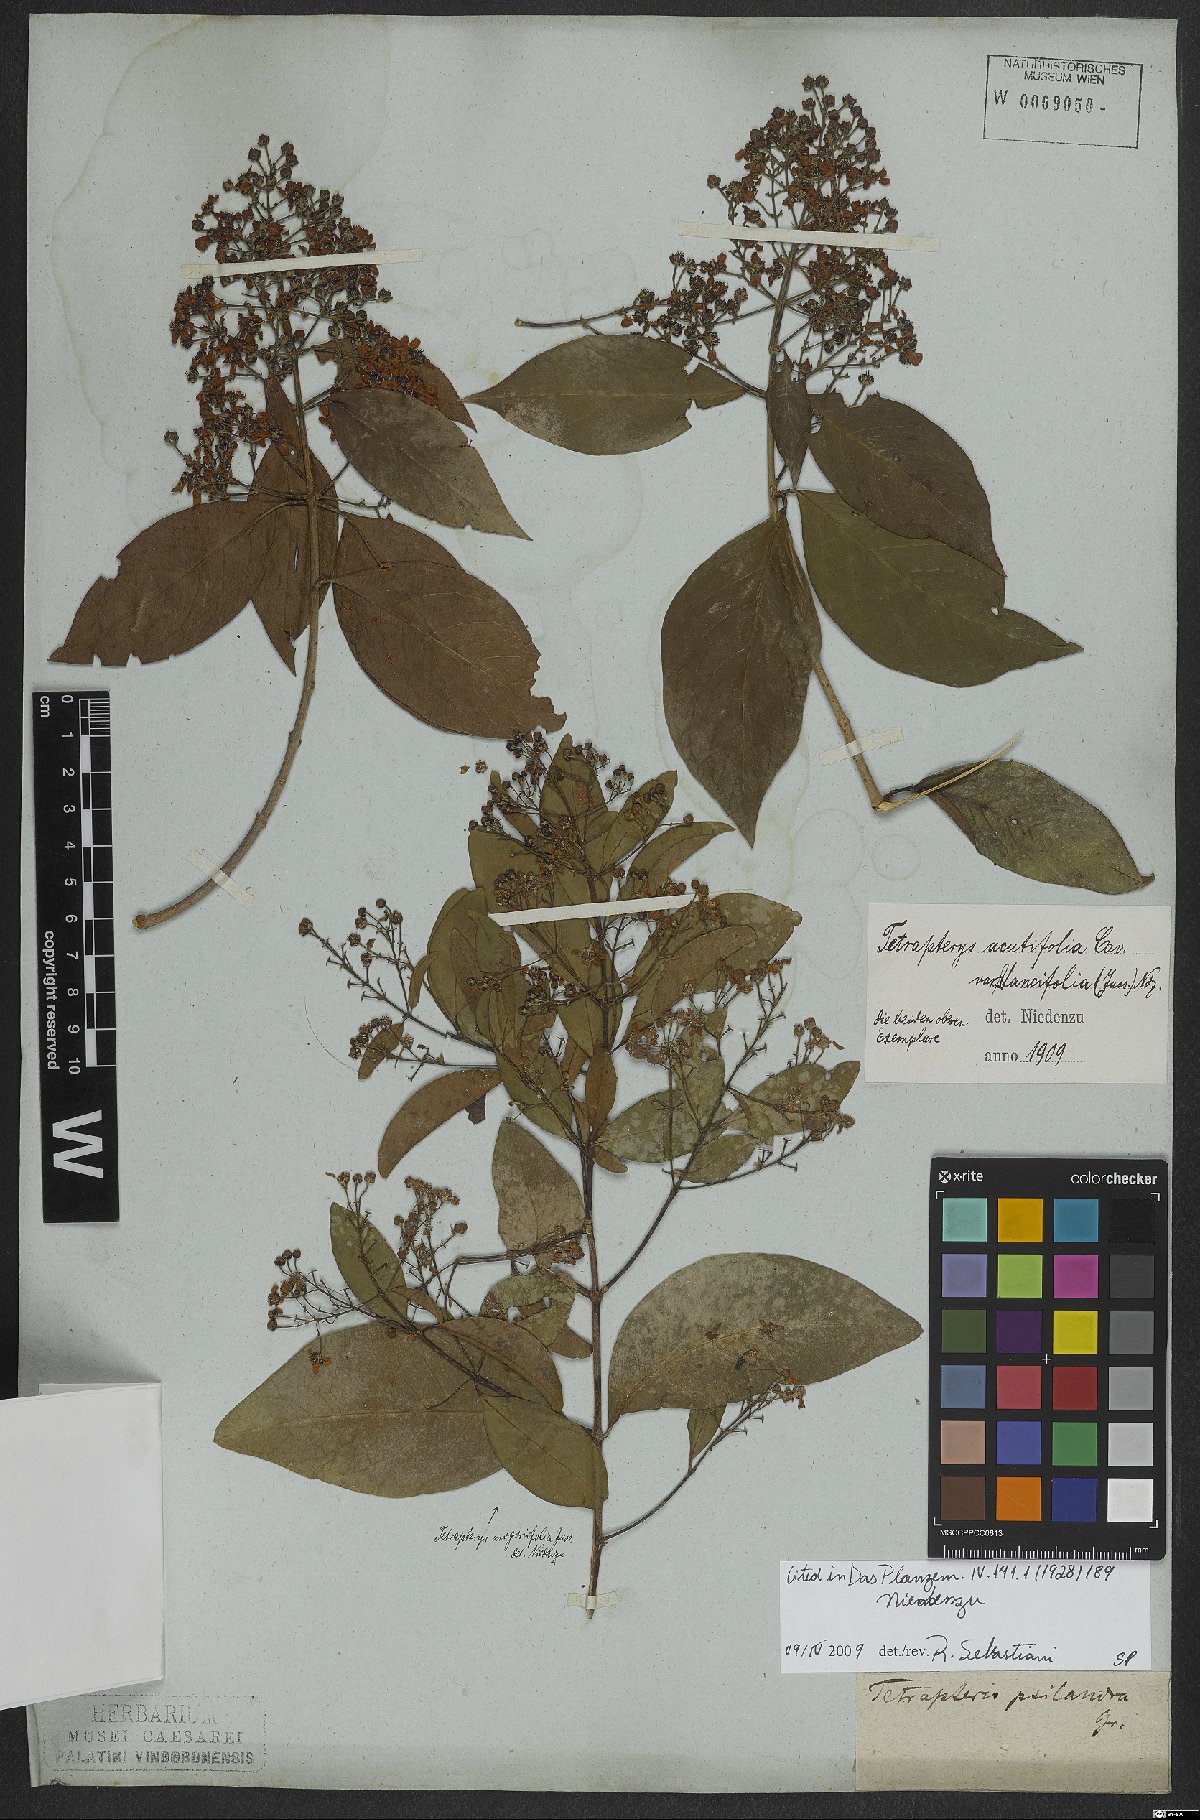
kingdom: Plantae
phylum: Tracheophyta
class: Magnoliopsida
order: Malpighiales
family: Malpighiaceae
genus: Niedenzuella
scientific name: Niedenzuella acutifolia
